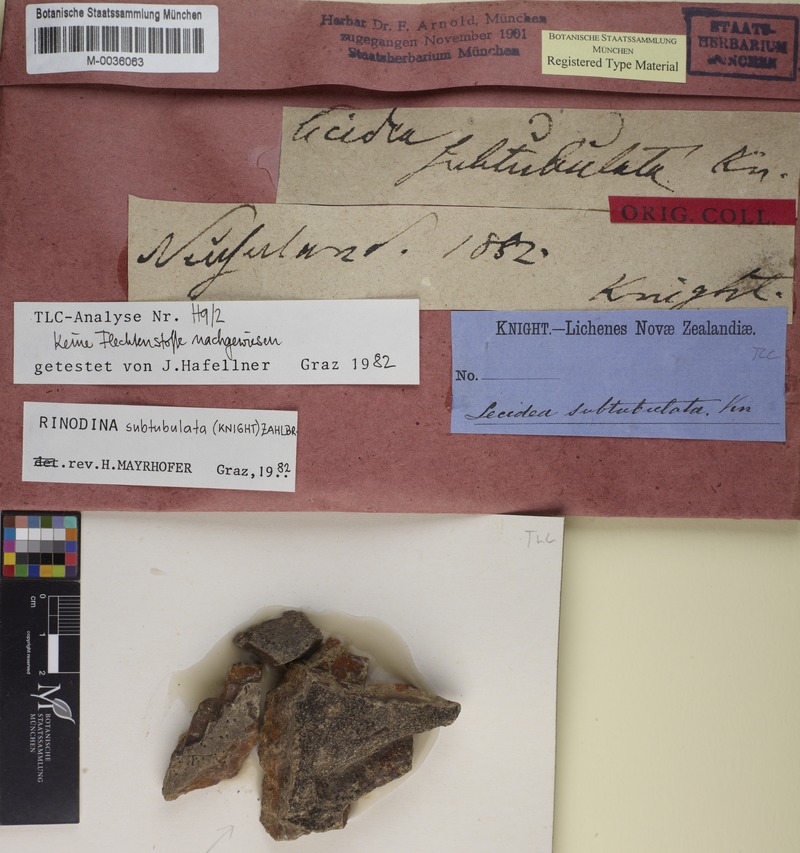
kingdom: Fungi
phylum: Ascomycota
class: Lecanoromycetes
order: Caliciales
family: Physciaceae
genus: Rinodina
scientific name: Rinodina
